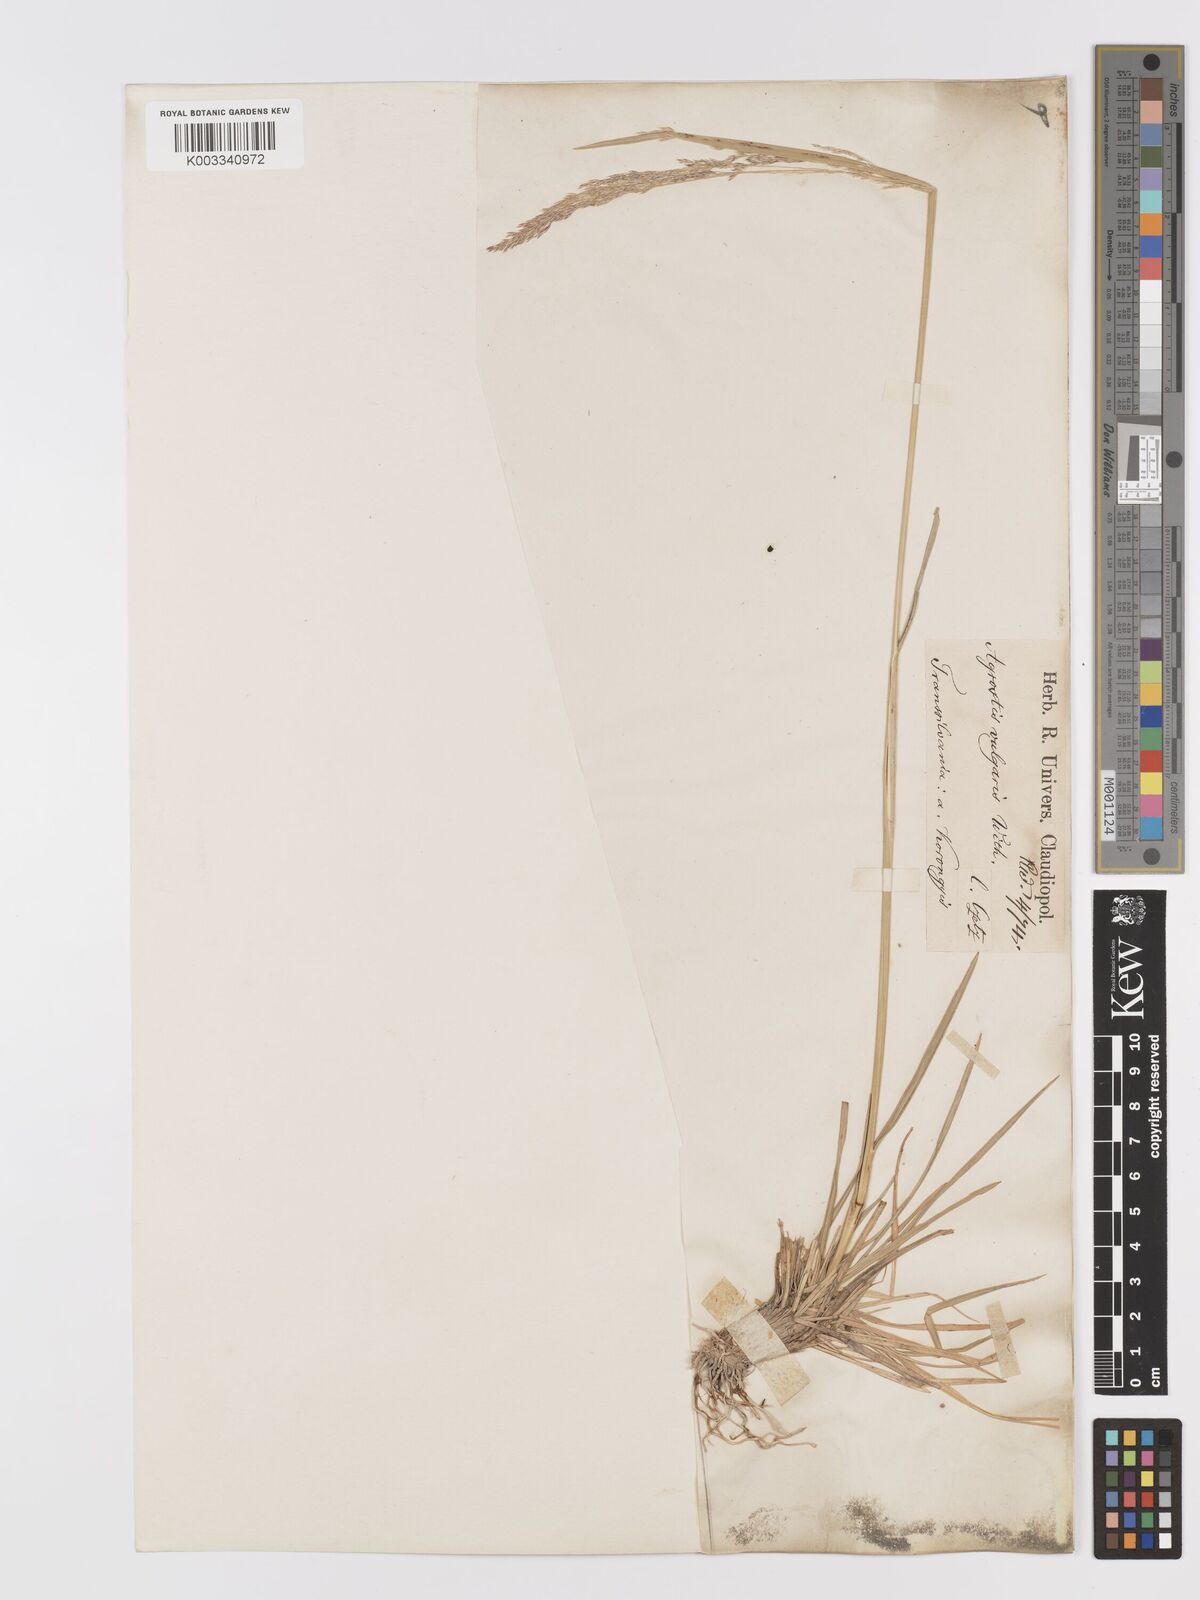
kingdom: Plantae
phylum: Tracheophyta
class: Liliopsida
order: Poales
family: Poaceae
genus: Agrostis
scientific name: Agrostis capillaris
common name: Colonial bentgrass
